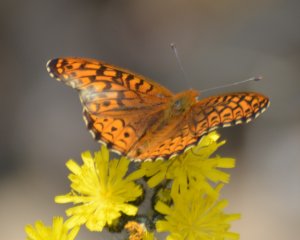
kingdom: Animalia
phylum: Arthropoda
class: Insecta
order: Lepidoptera
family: Nymphalidae
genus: Speyeria
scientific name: Speyeria atlantis
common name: Atlantis Fritillary
